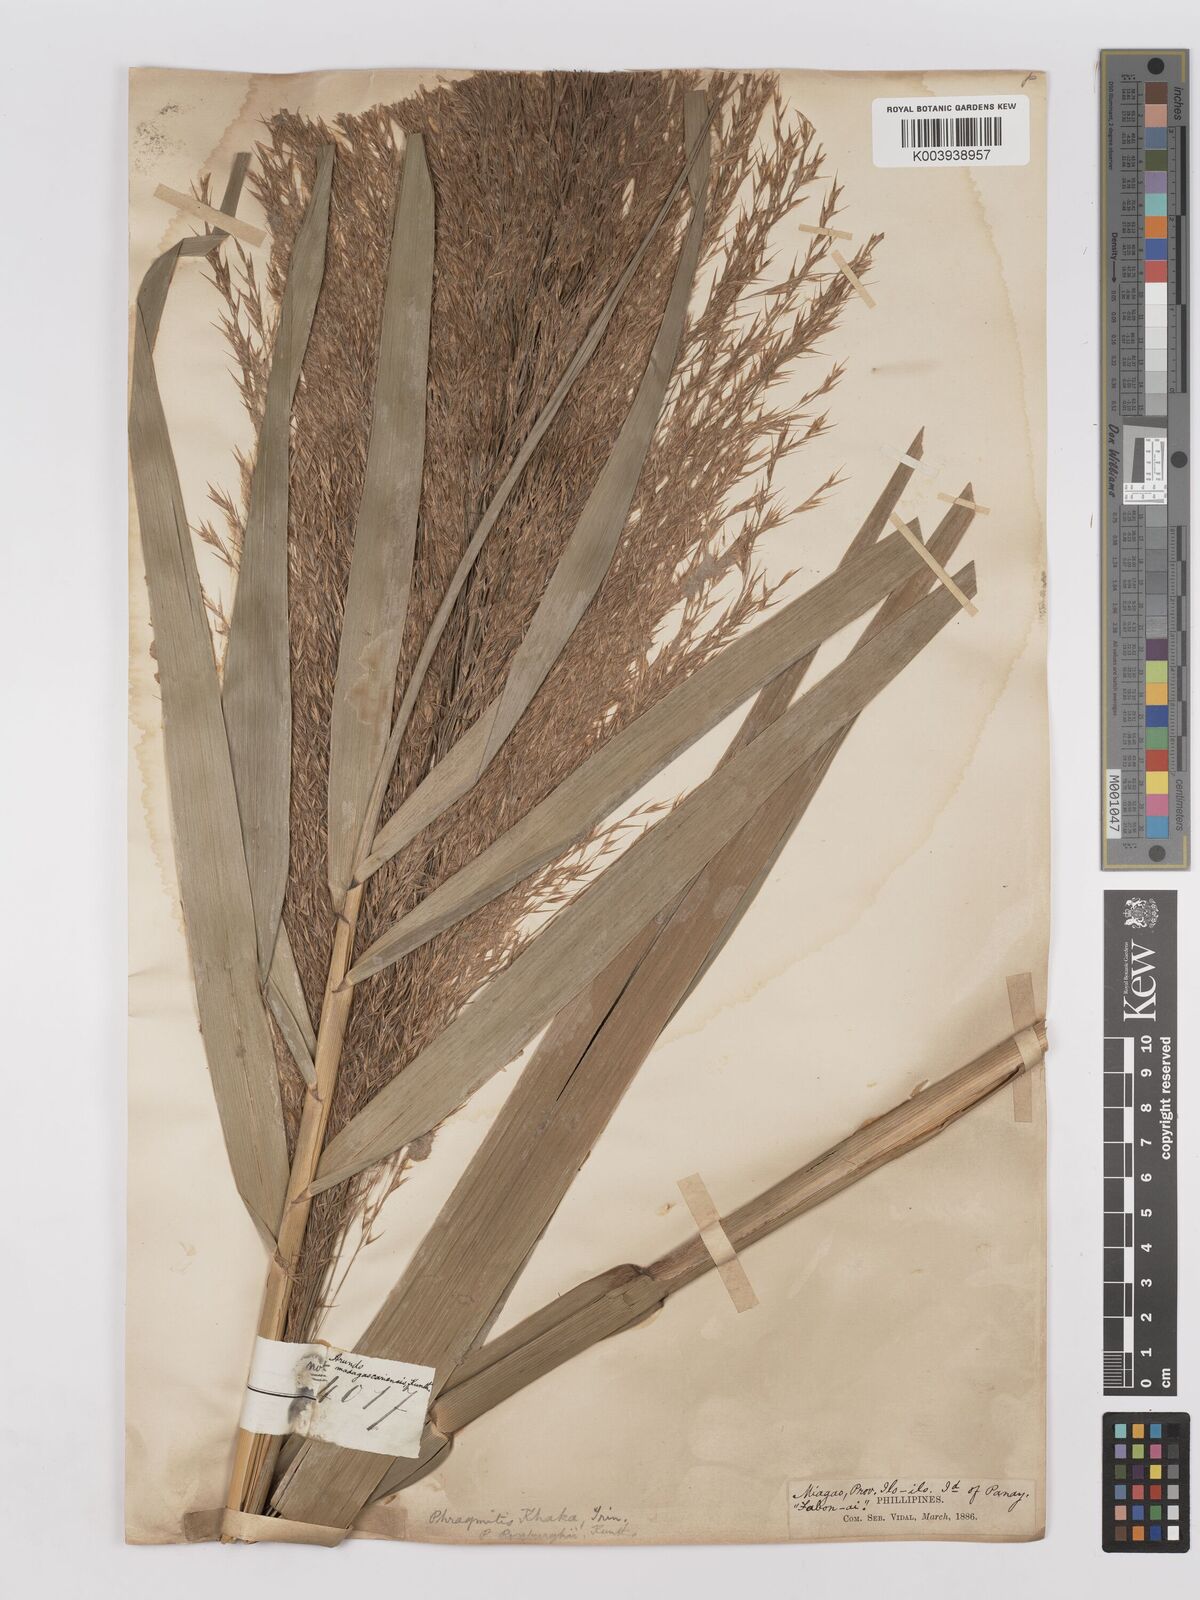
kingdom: Plantae
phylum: Tracheophyta
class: Liliopsida
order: Poales
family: Poaceae
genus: Phragmites
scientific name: Phragmites karka
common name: Tropical reed
